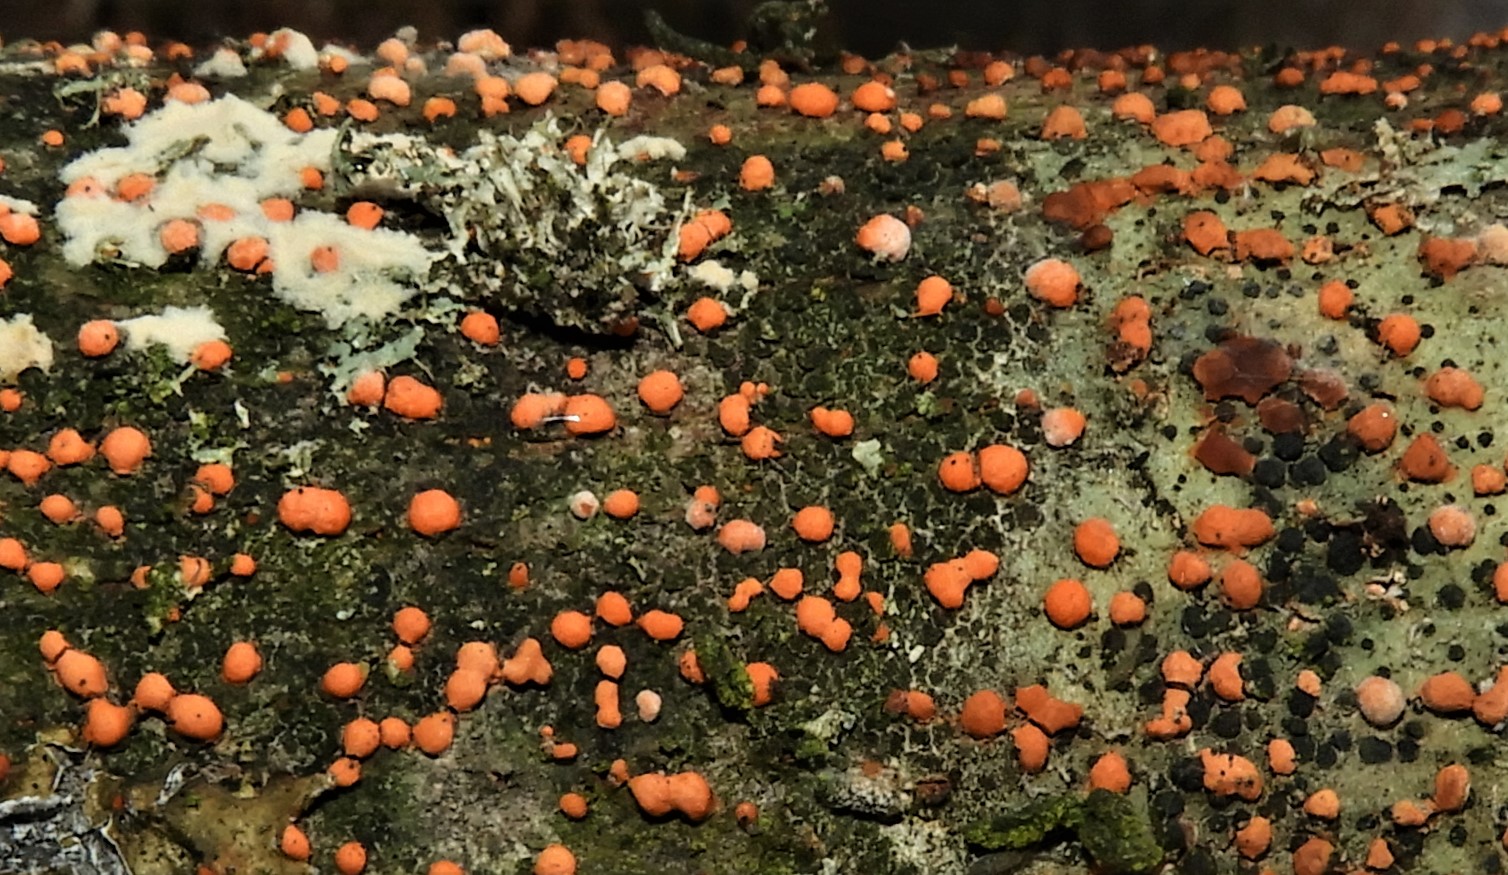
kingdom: Fungi
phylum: Ascomycota
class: Sordariomycetes
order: Hypocreales
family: Nectriaceae
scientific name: Nectriaceae
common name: cinnobersvampfamilien
